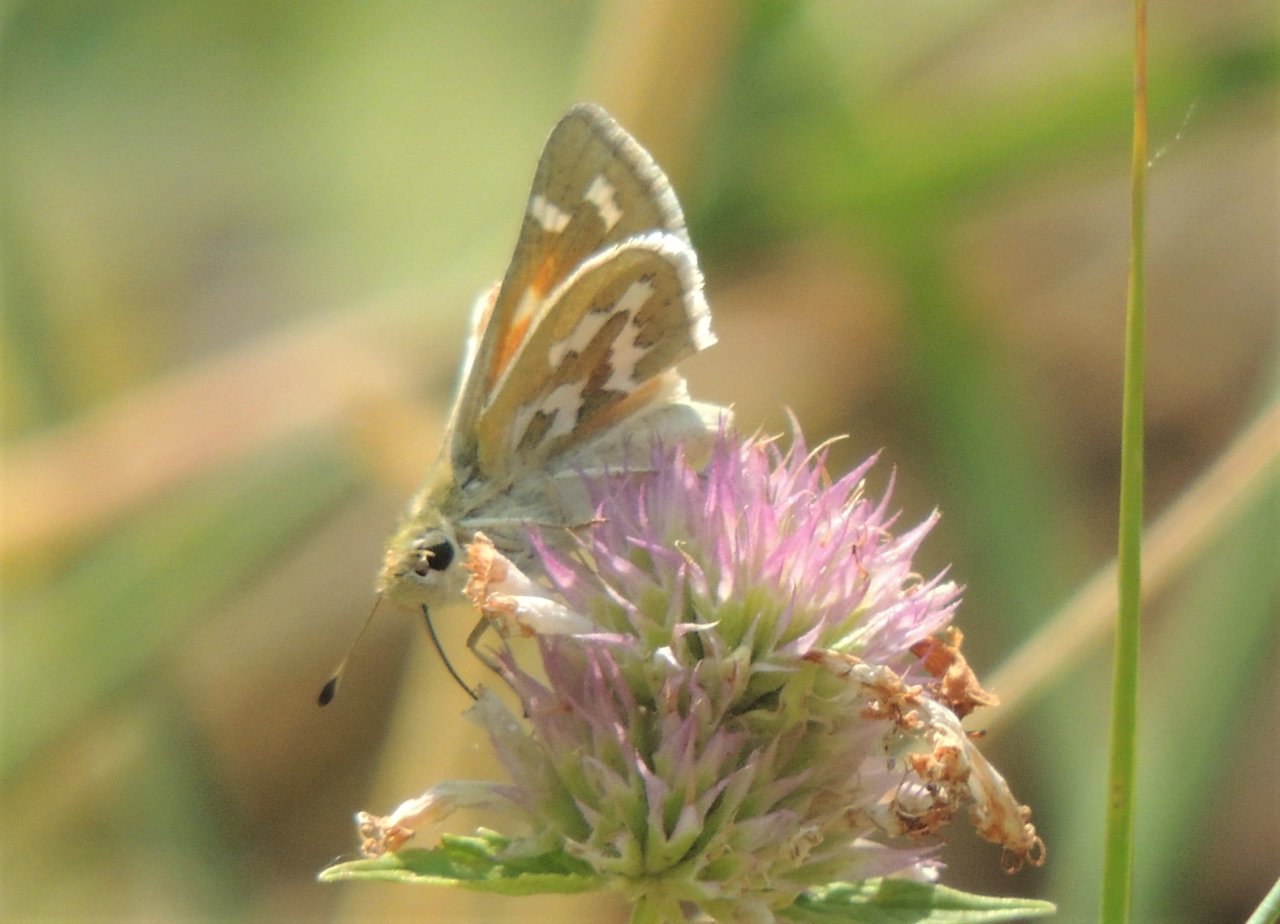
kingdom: Animalia
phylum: Arthropoda
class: Insecta
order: Lepidoptera
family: Hesperiidae
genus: Hesperia
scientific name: Hesperia comma
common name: Western Branded Skipper
